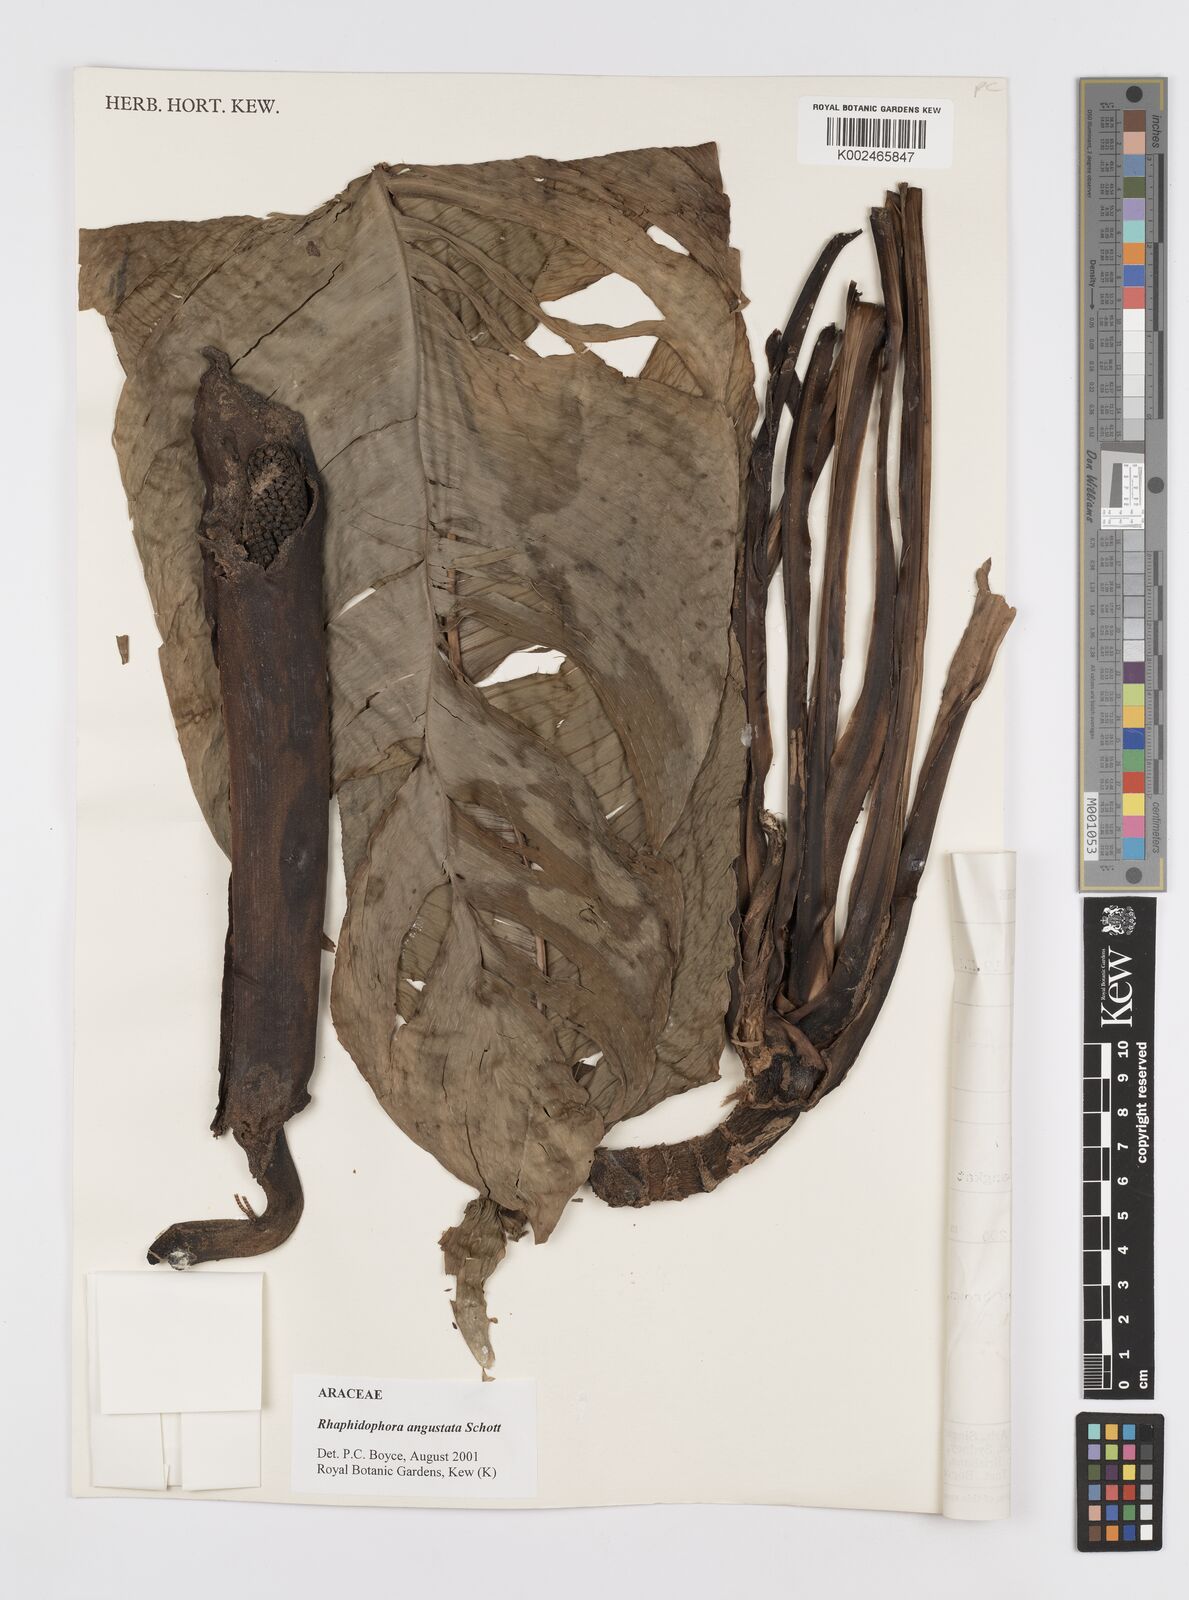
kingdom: Plantae
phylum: Tracheophyta
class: Liliopsida
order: Alismatales
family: Araceae
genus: Rhaphidophora
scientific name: Rhaphidophora angustata
